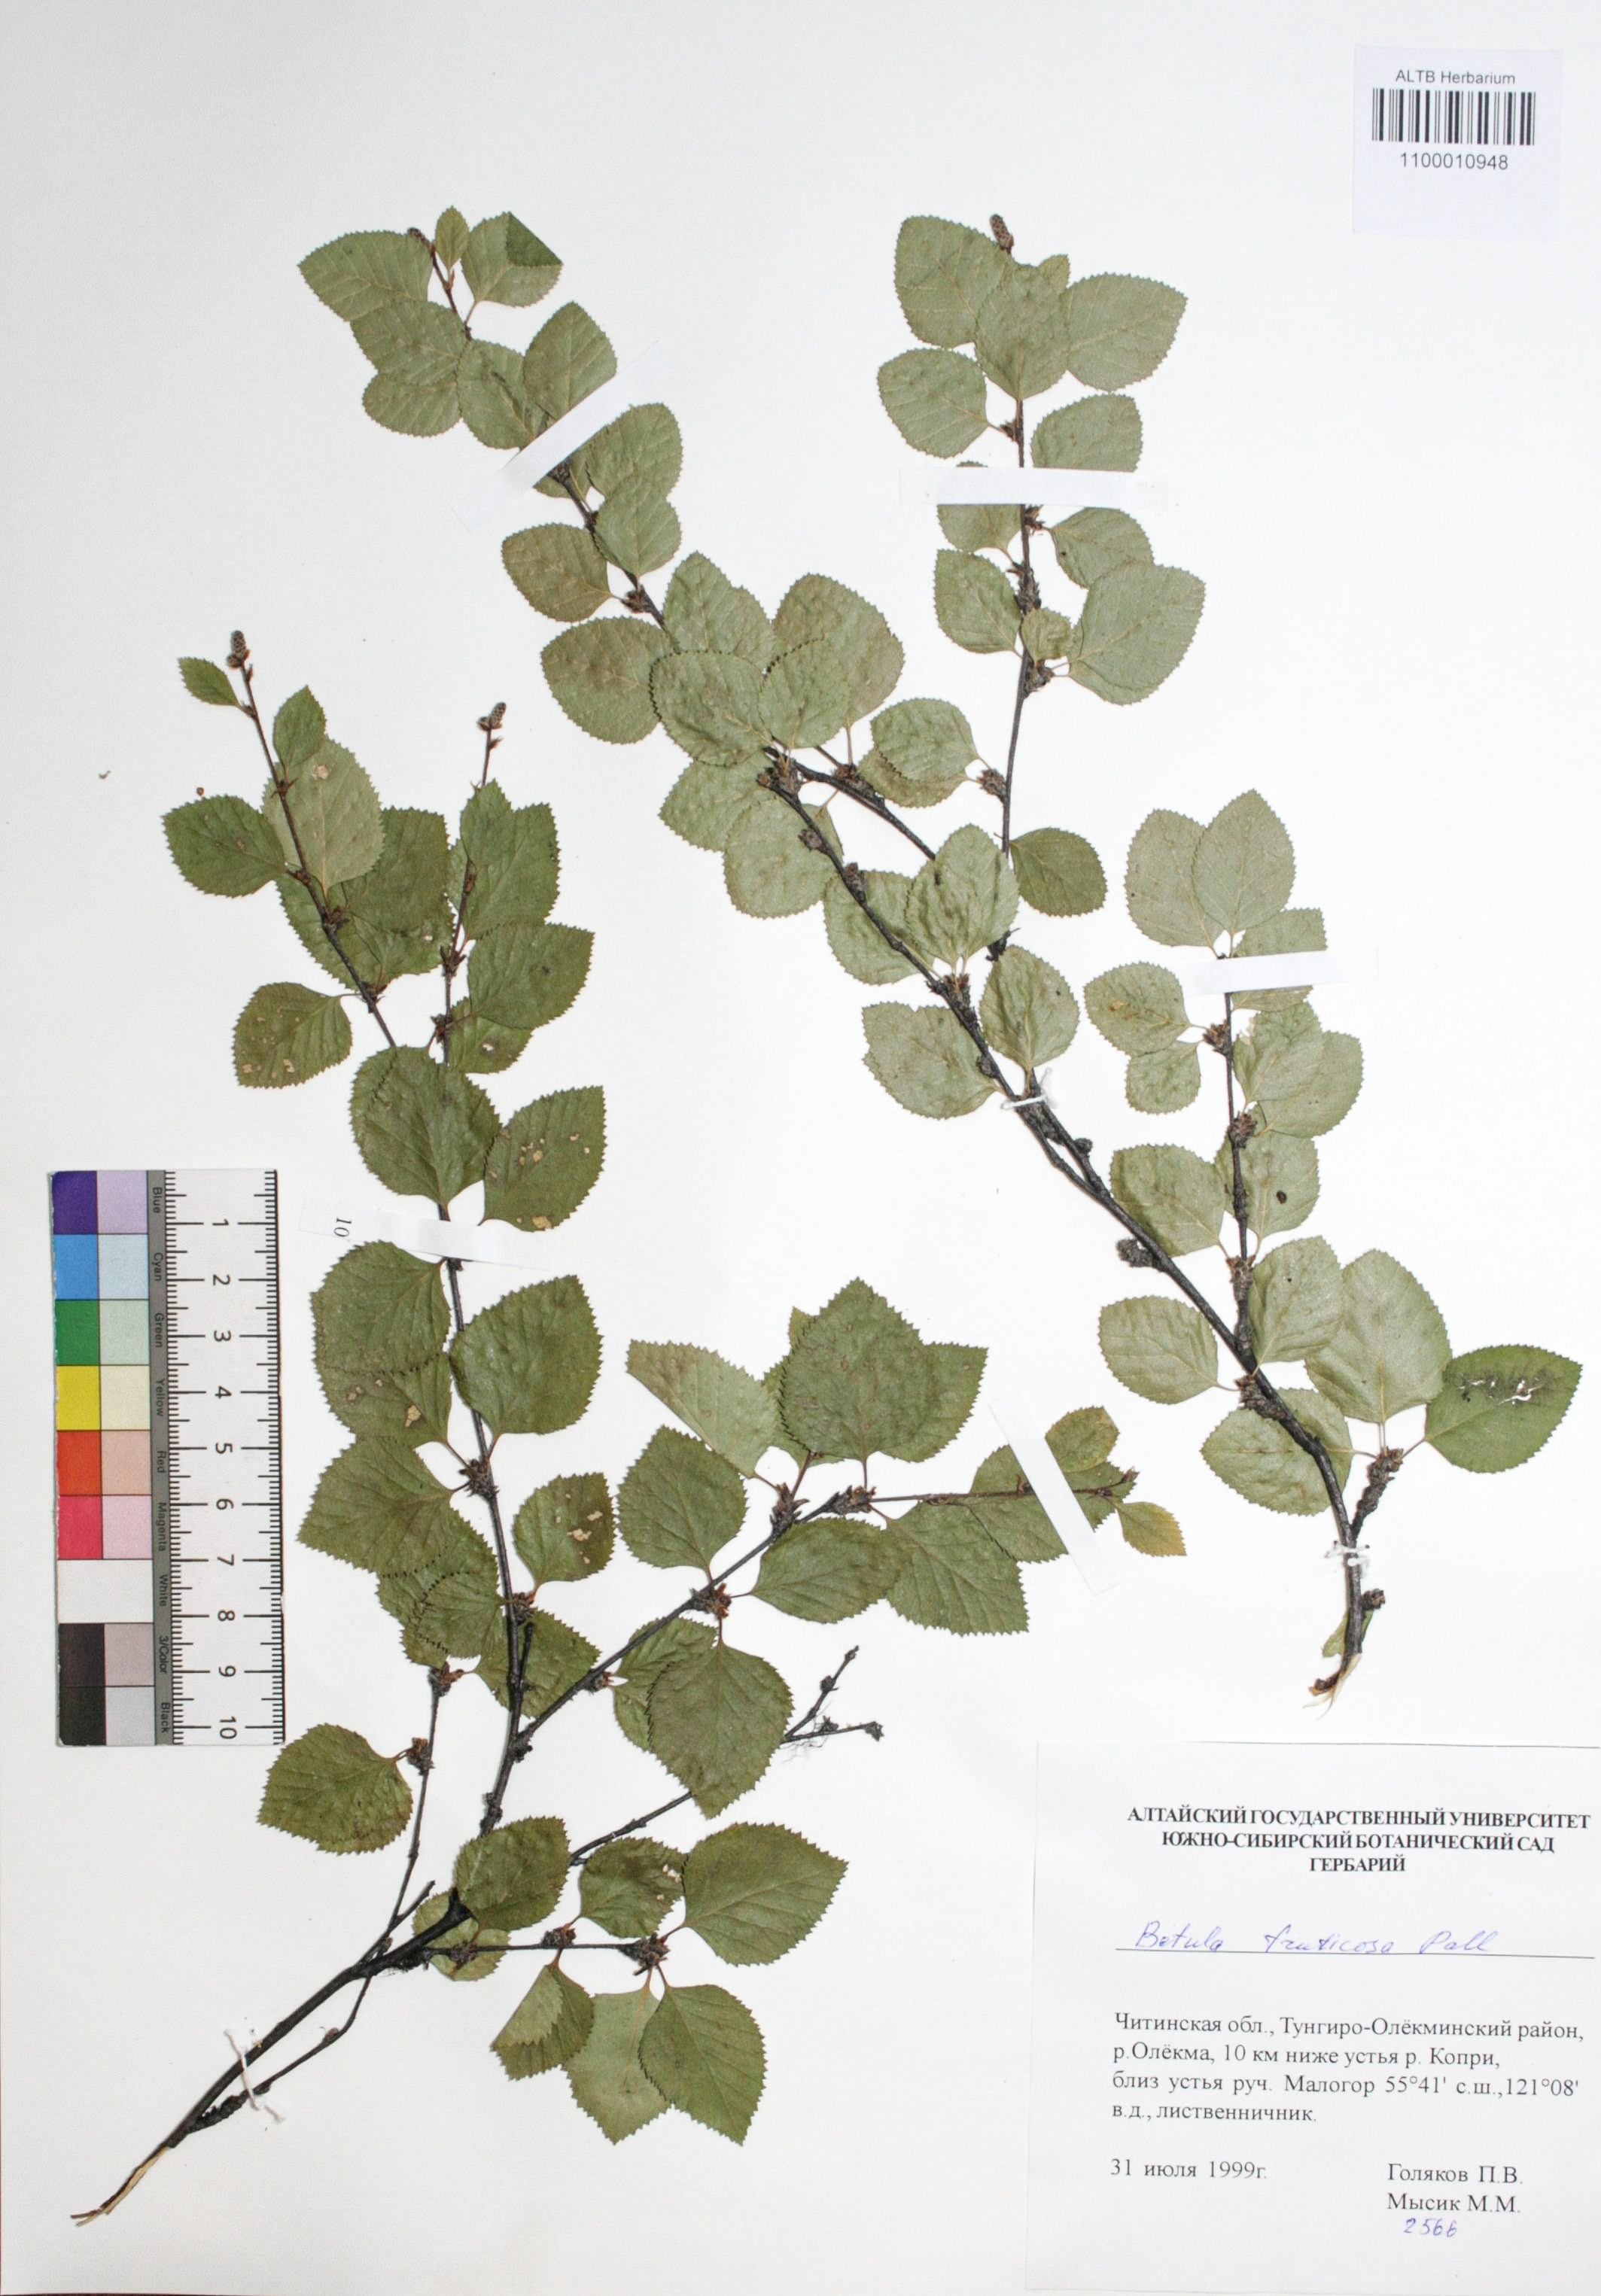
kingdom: Plantae
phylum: Tracheophyta
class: Magnoliopsida
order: Fagales
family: Betulaceae
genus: Betula
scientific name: Betula fruticosa
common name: Japanese bog birch
